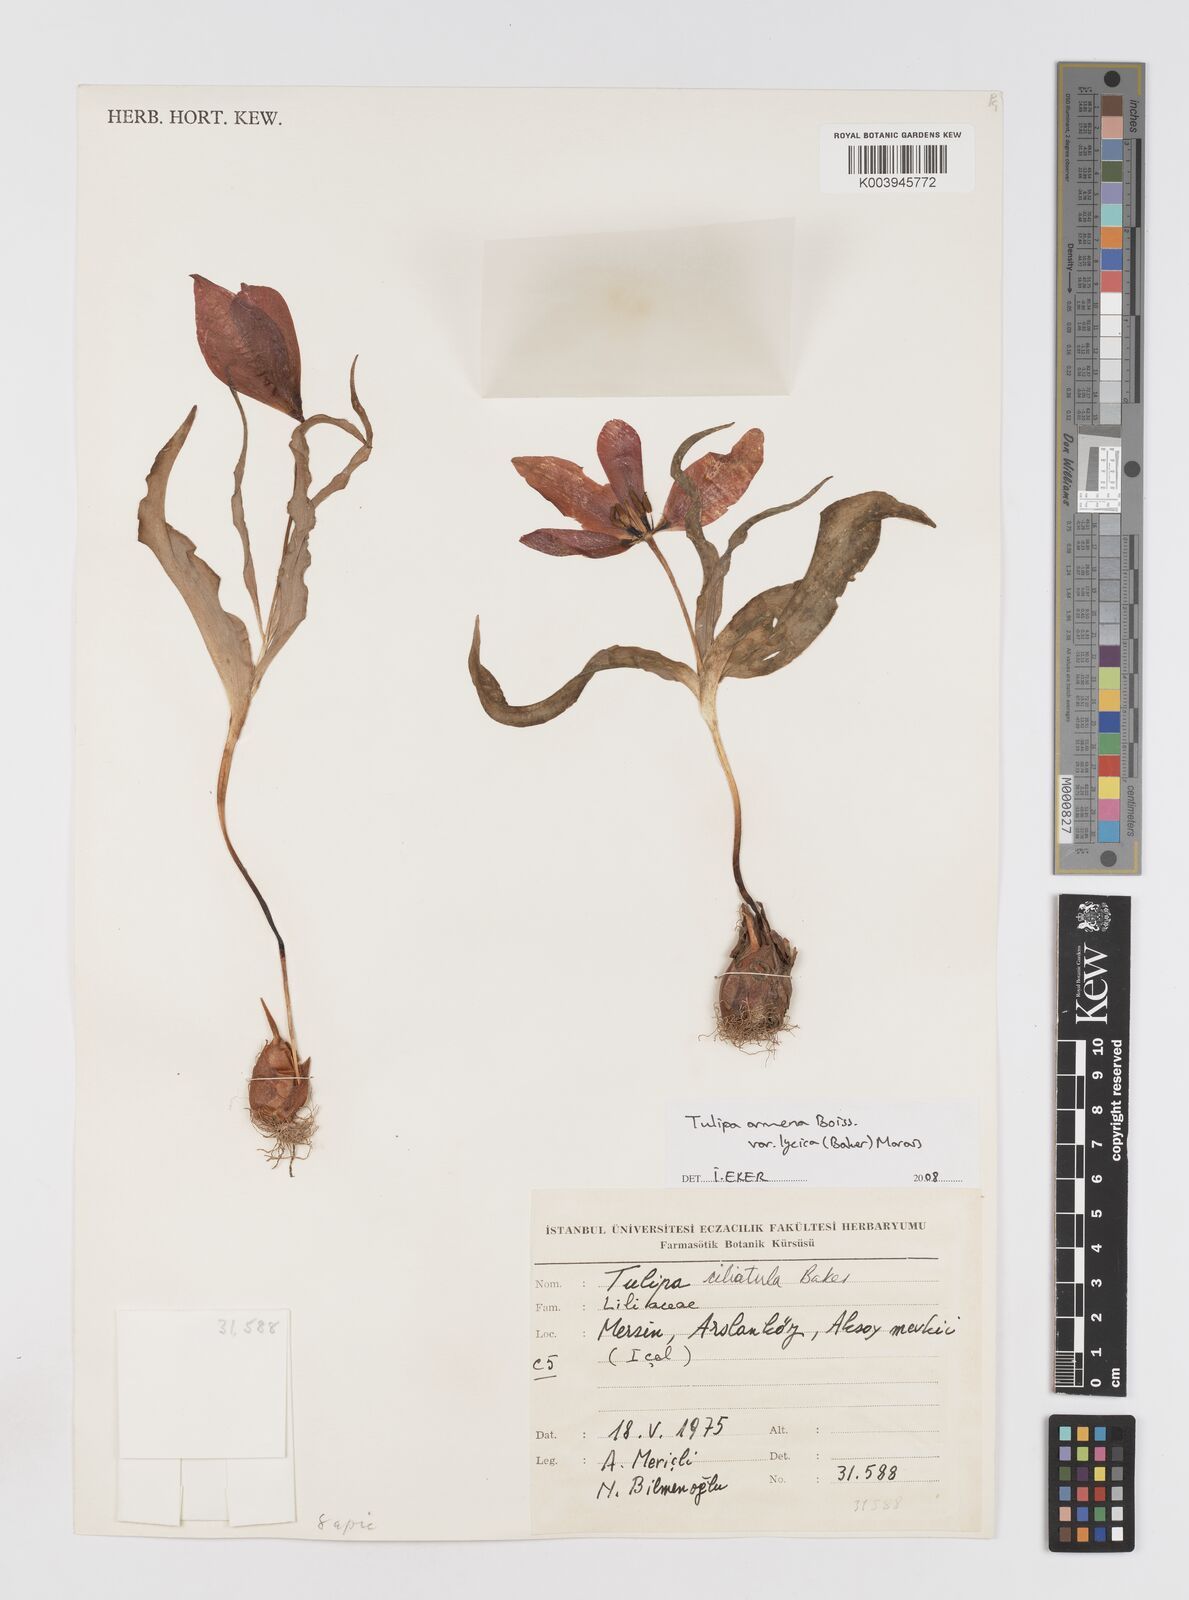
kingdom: Plantae
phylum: Tracheophyta
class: Liliopsida
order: Liliales
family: Liliaceae
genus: Tulipa
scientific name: Tulipa foliosa
